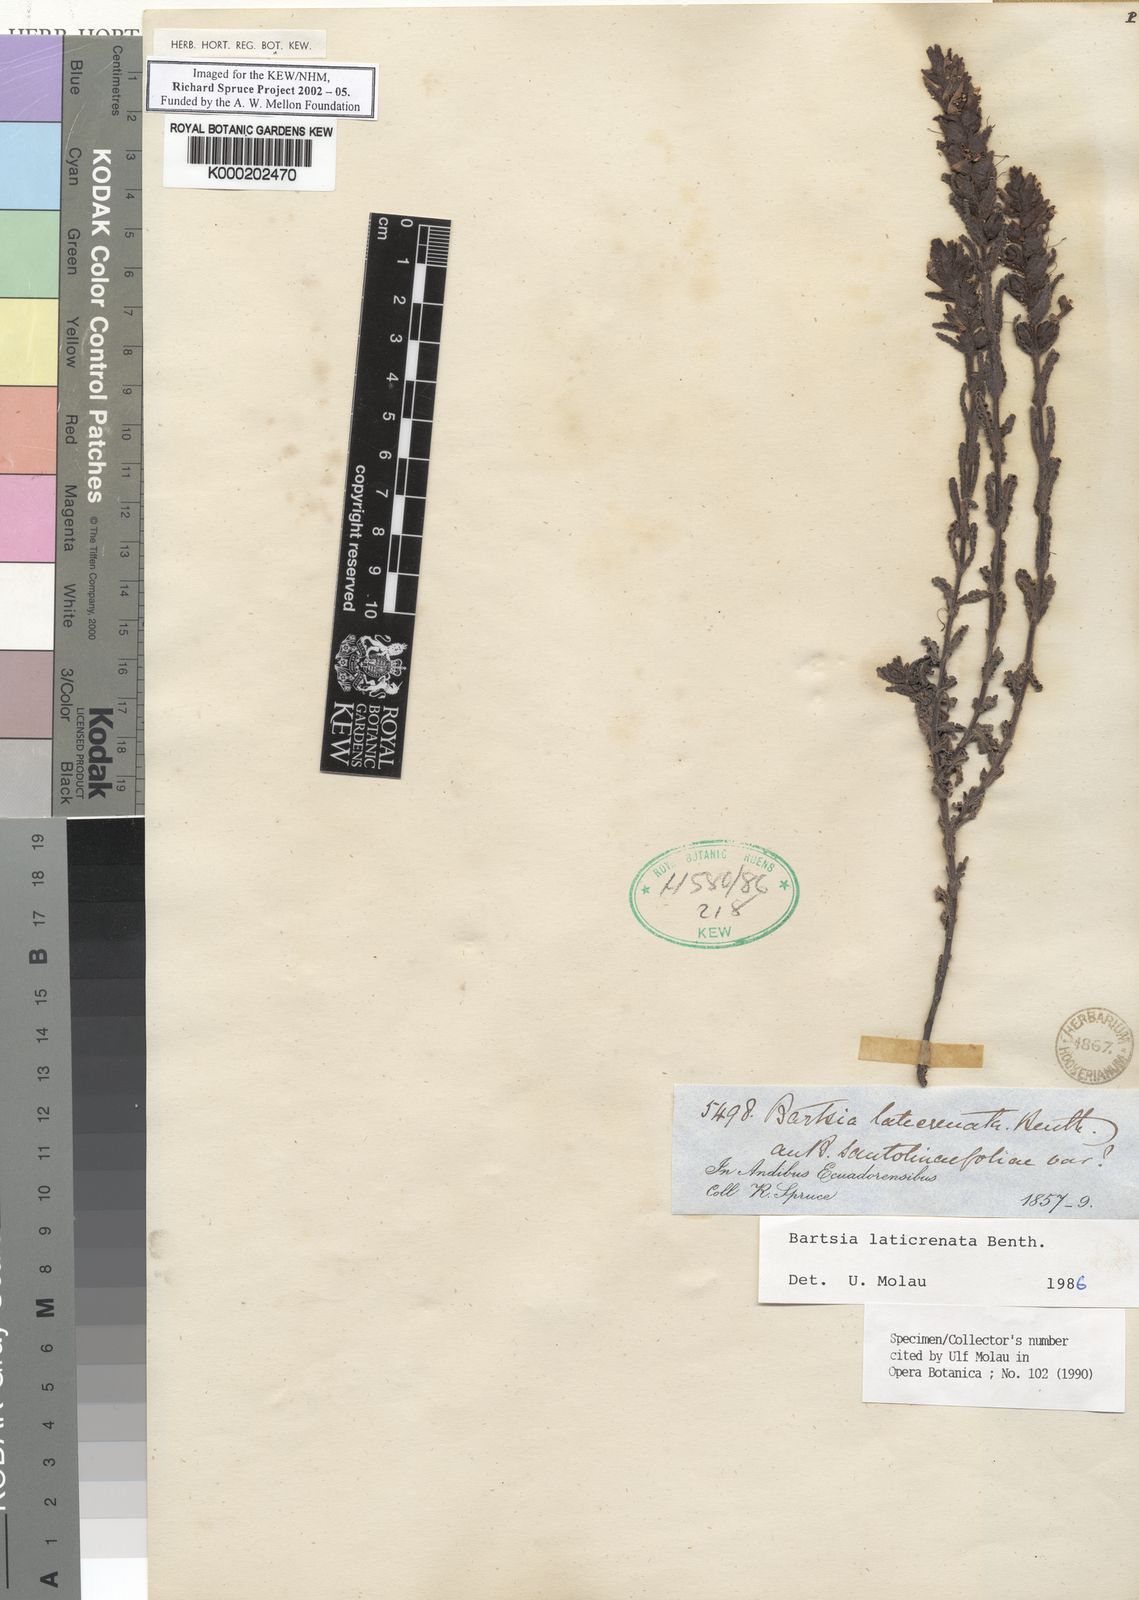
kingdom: Plantae
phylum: Tracheophyta
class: Magnoliopsida
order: Lamiales
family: Orobanchaceae
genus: Neobartsia
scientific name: Neobartsia laticrenata
